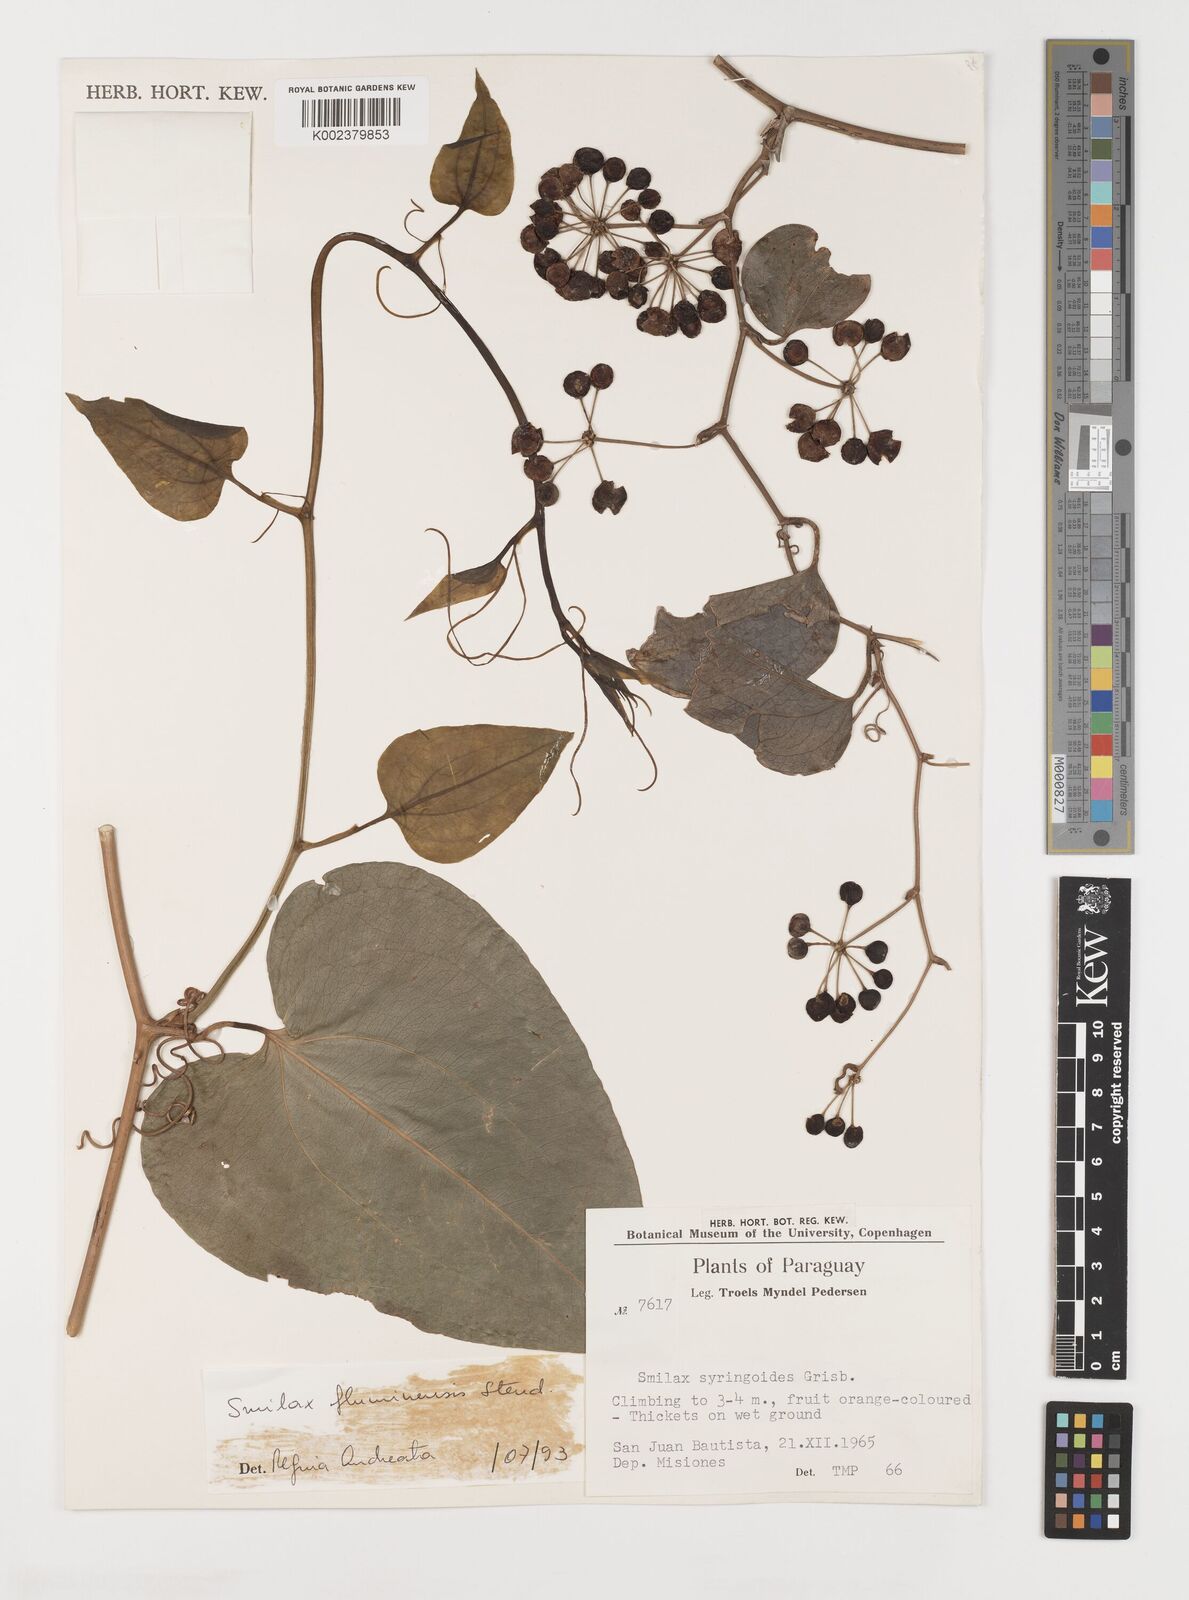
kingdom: Plantae
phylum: Tracheophyta
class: Liliopsida
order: Liliales
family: Smilacaceae
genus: Smilax
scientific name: Smilax fluminensis
